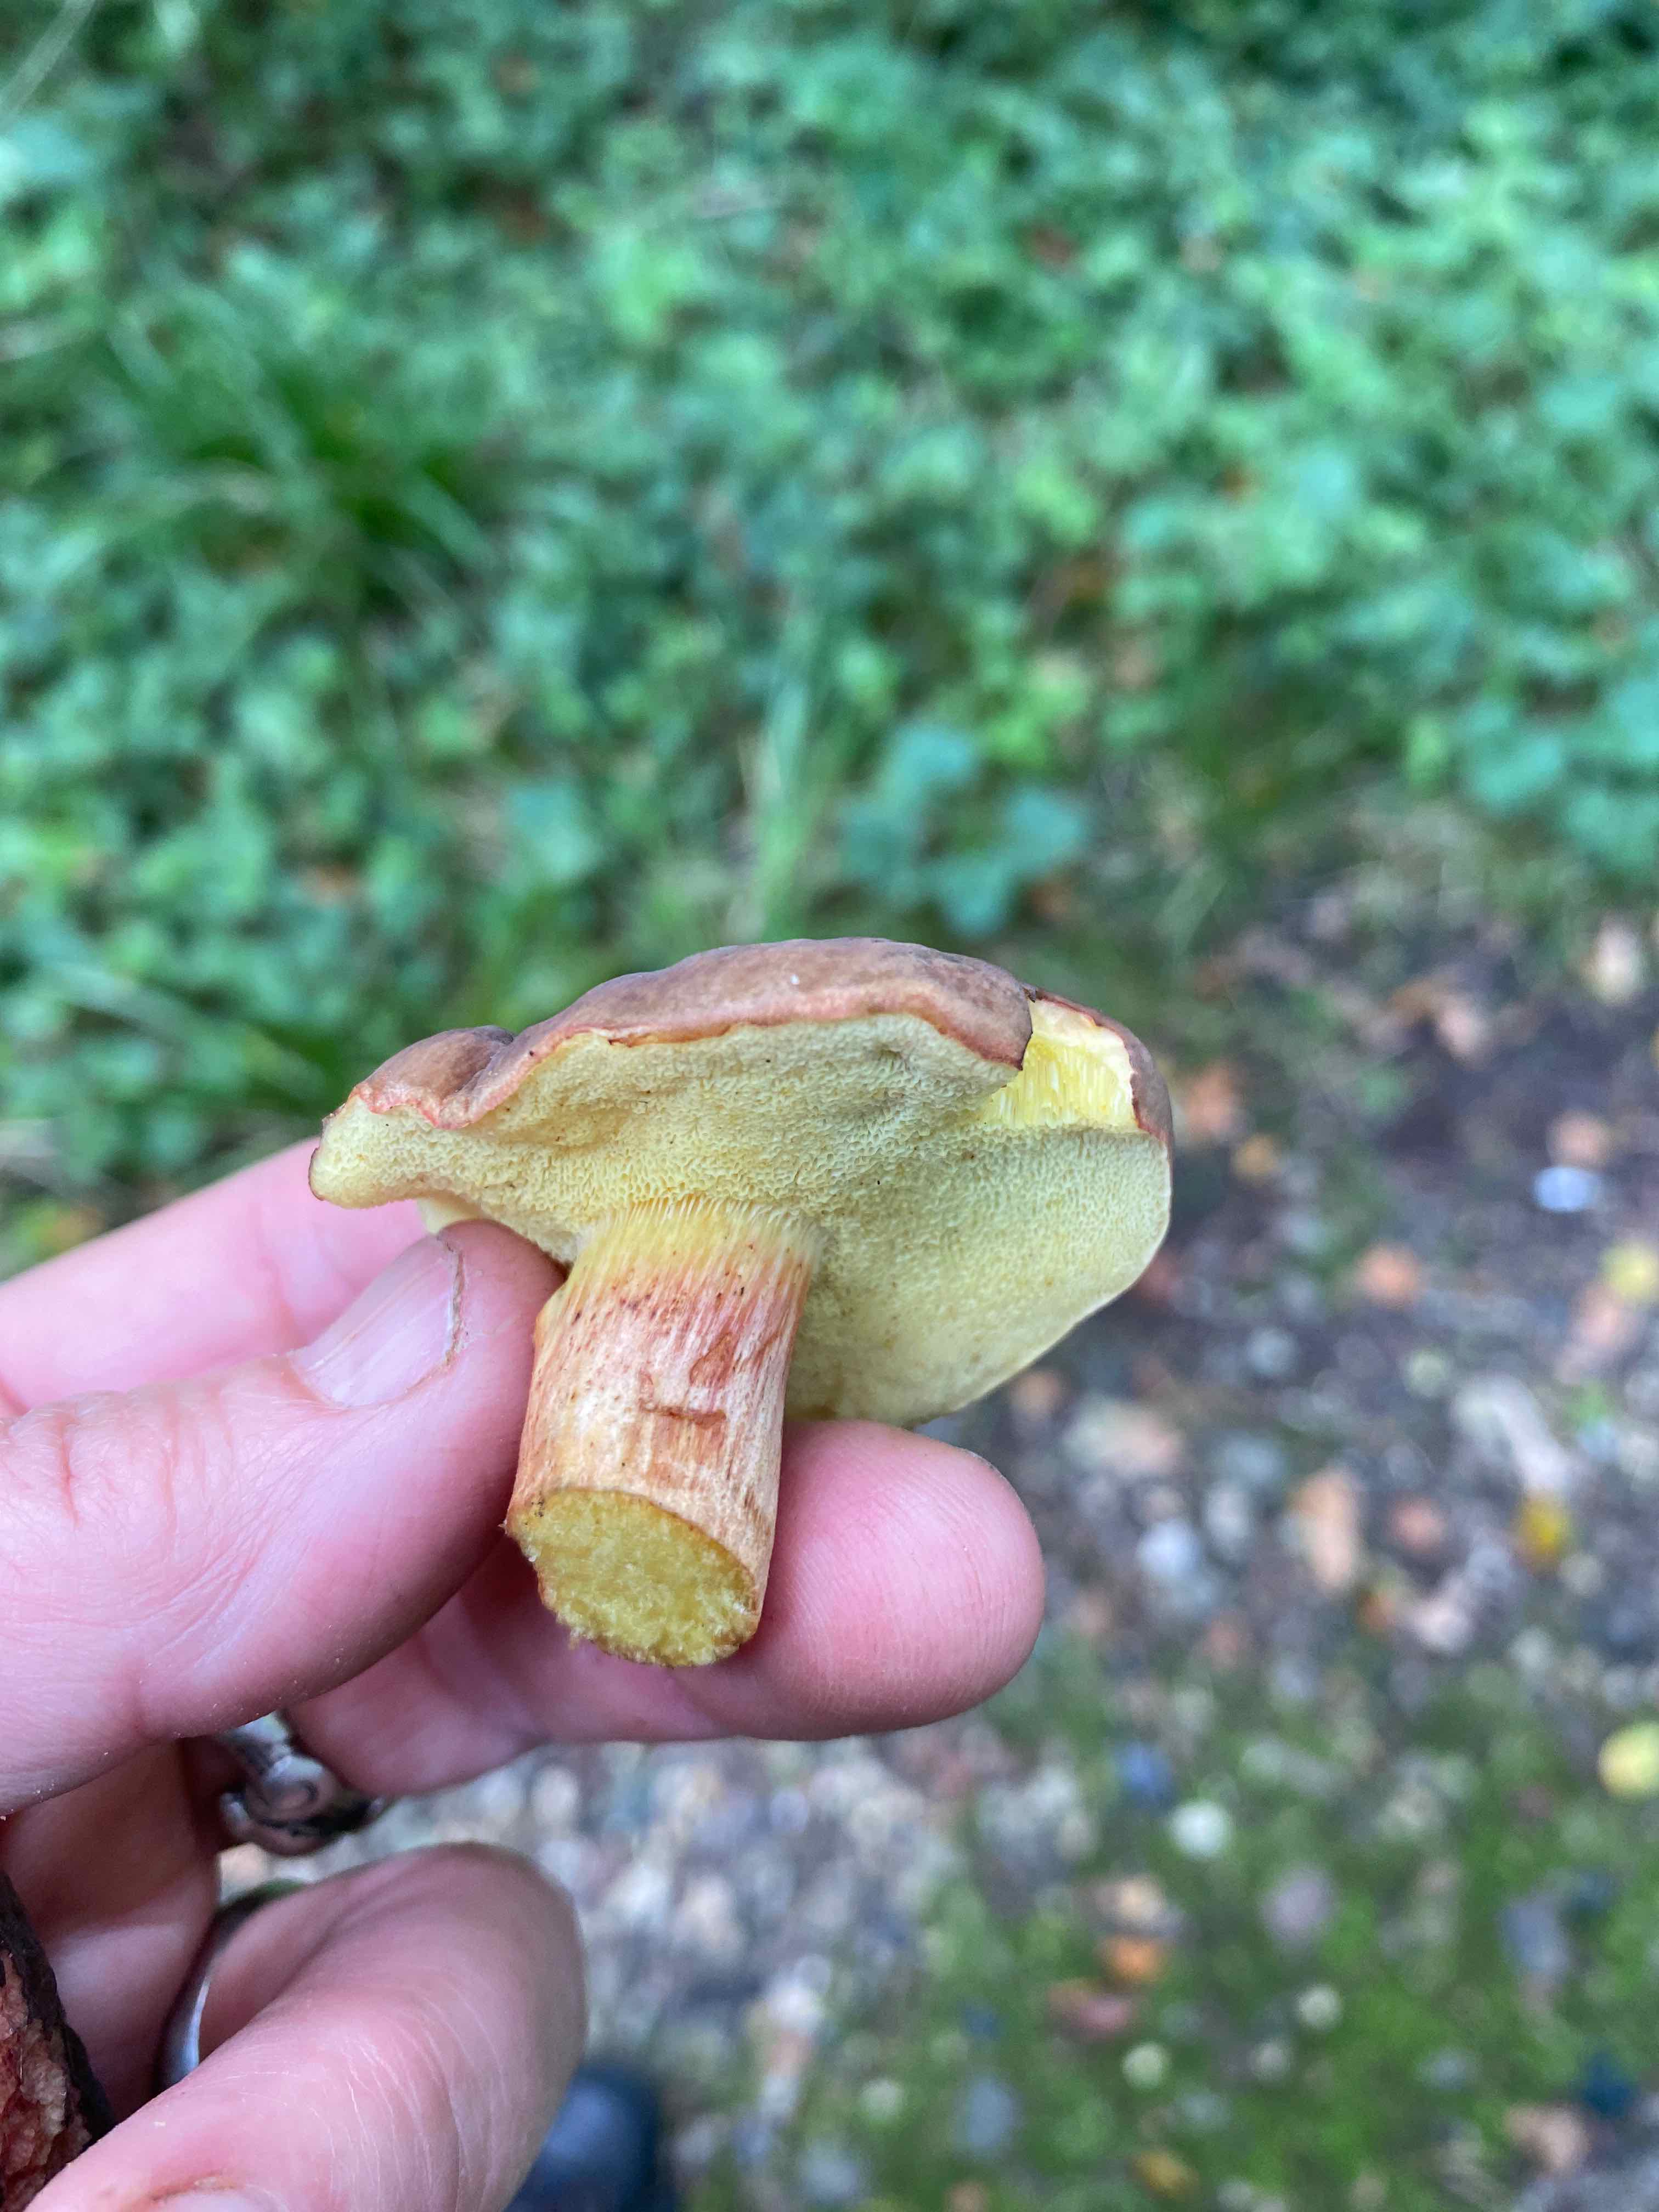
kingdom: Fungi
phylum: Basidiomycota
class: Agaricomycetes
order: Boletales
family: Boletaceae
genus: Xerocomellus
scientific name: Xerocomellus pruinatus
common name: dugget rørhat
